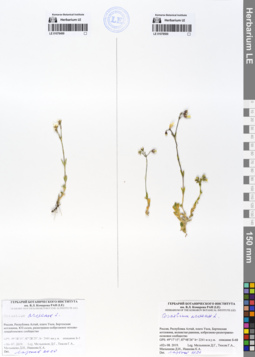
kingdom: Plantae
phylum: Tracheophyta
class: Magnoliopsida
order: Caryophyllales
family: Caryophyllaceae
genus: Cerastium
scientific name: Cerastium arvense
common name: Field mouse-ear
